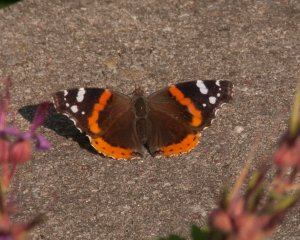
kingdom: Animalia
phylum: Arthropoda
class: Insecta
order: Lepidoptera
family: Nymphalidae
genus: Vanessa
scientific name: Vanessa atalanta
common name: Red Admiral
